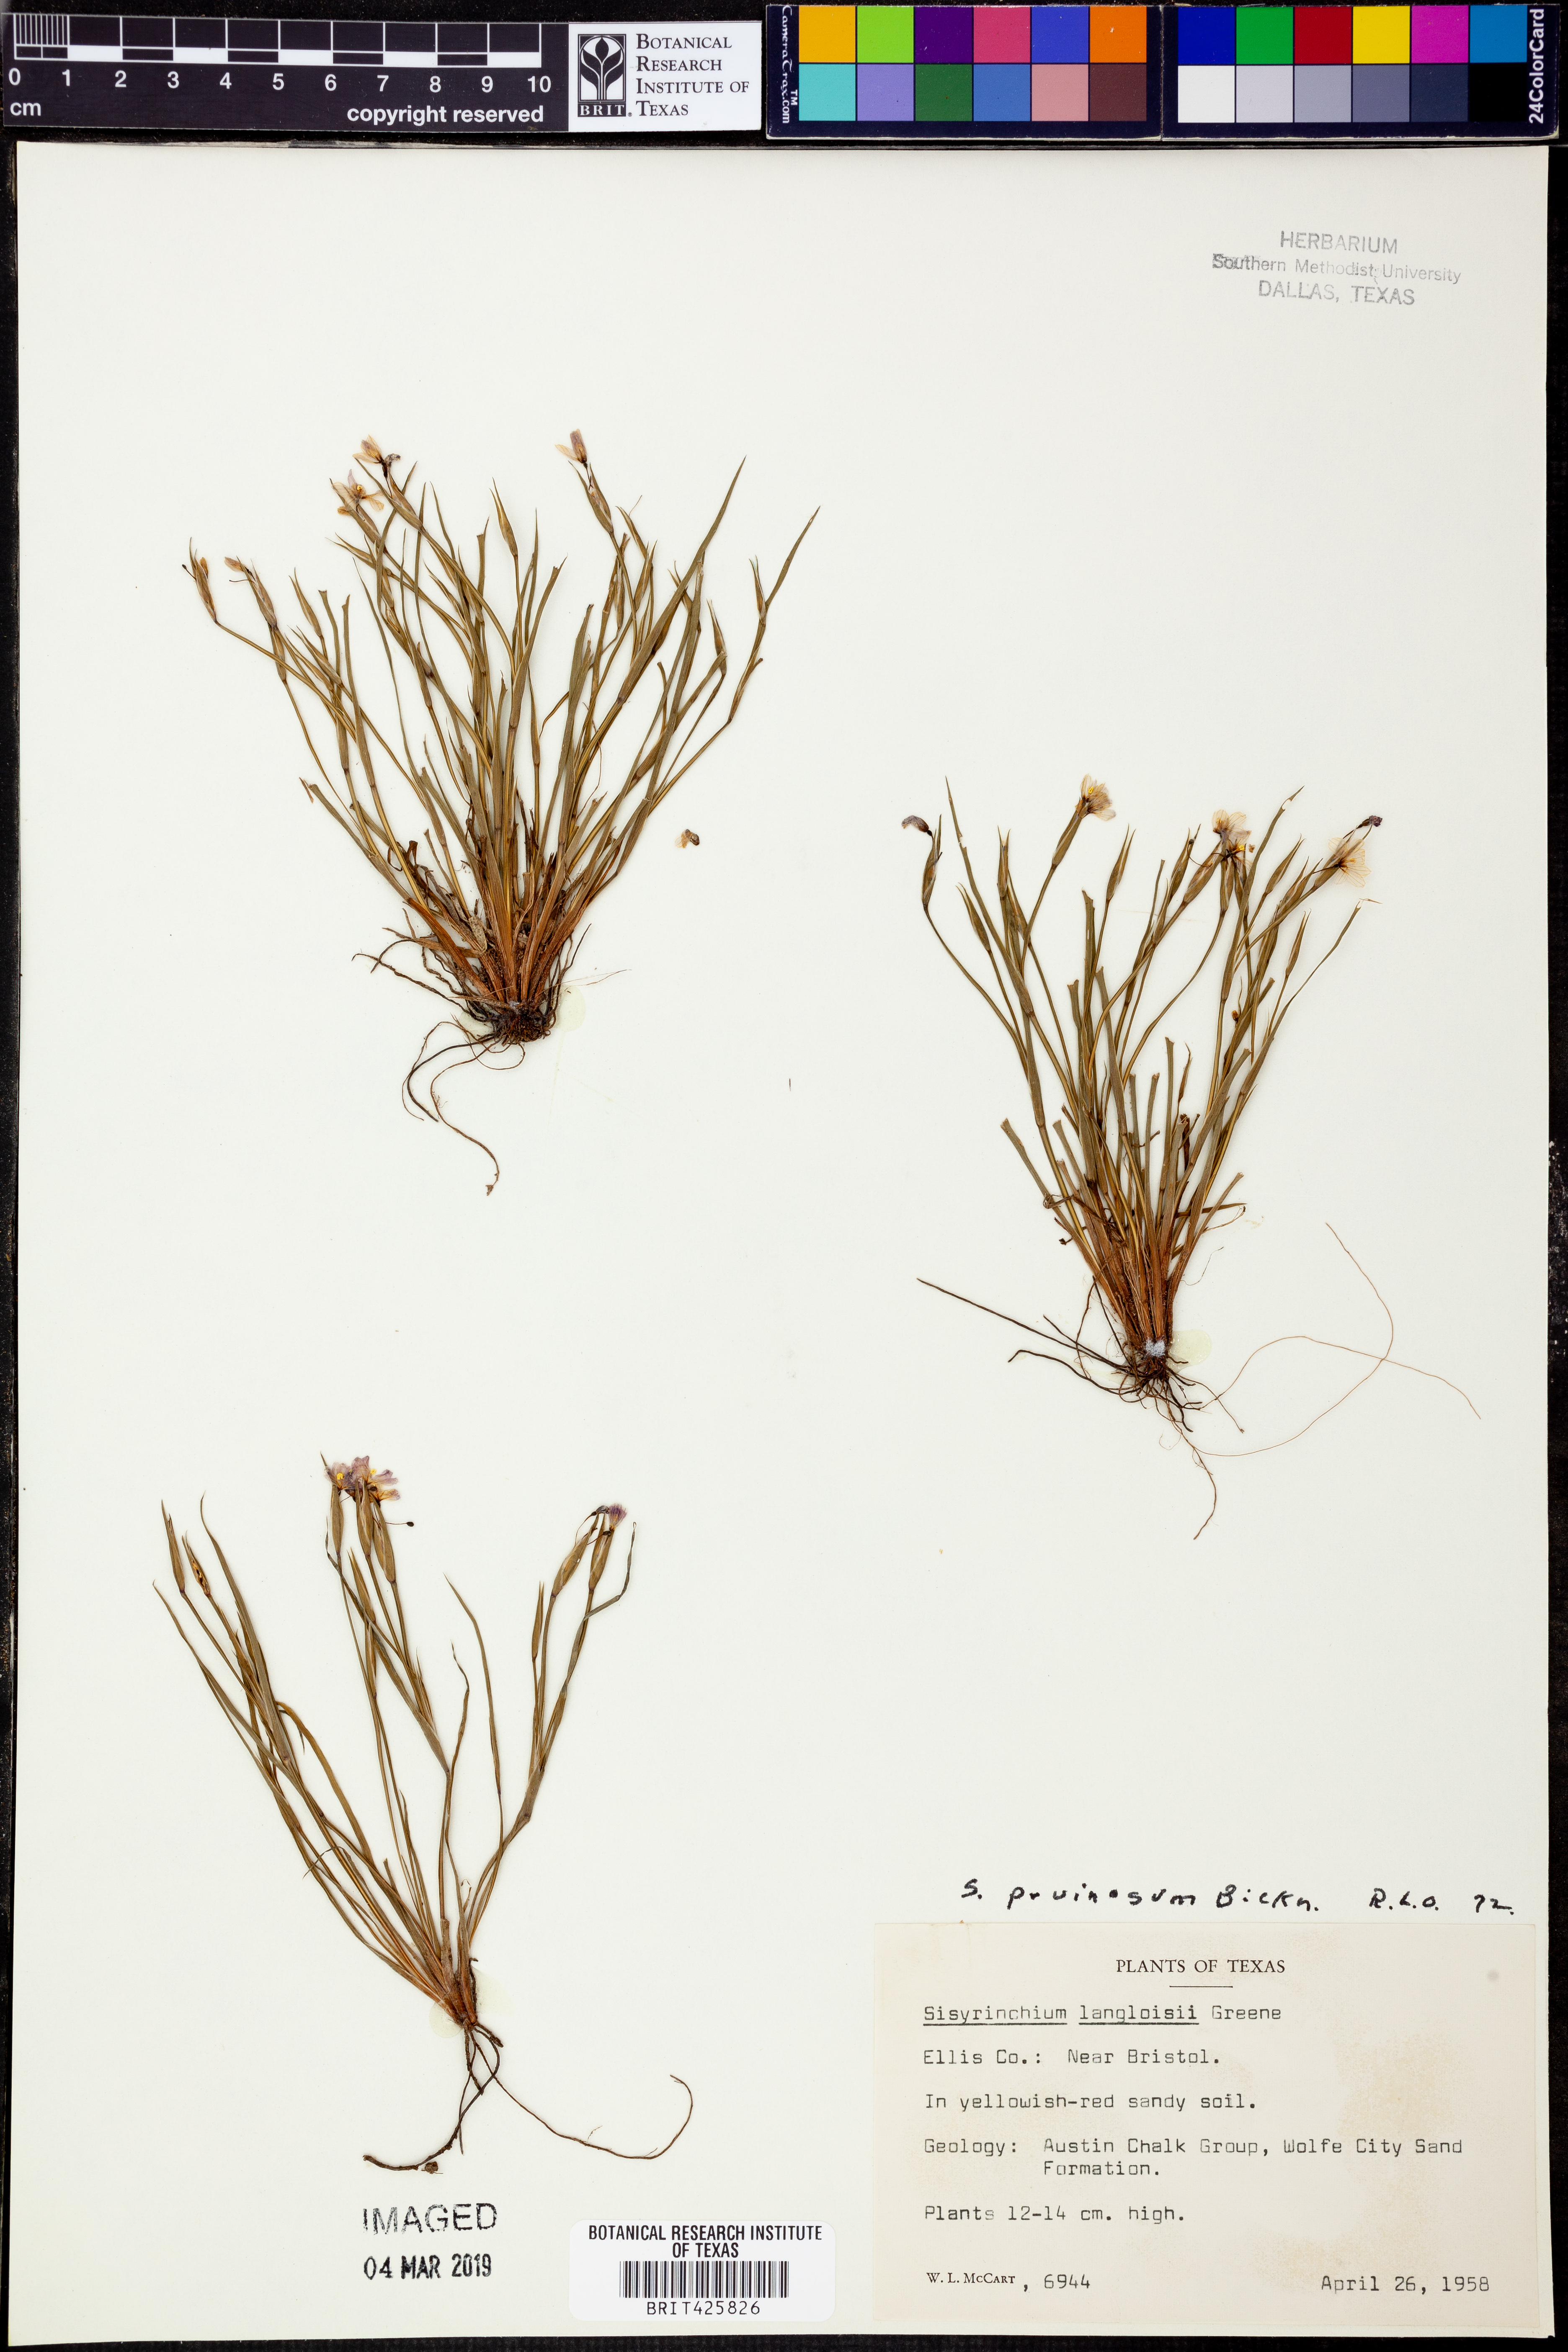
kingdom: Plantae
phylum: Tracheophyta
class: Liliopsida
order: Asparagales
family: Iridaceae
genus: Sisyrinchium
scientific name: Sisyrinchium pruinosum
